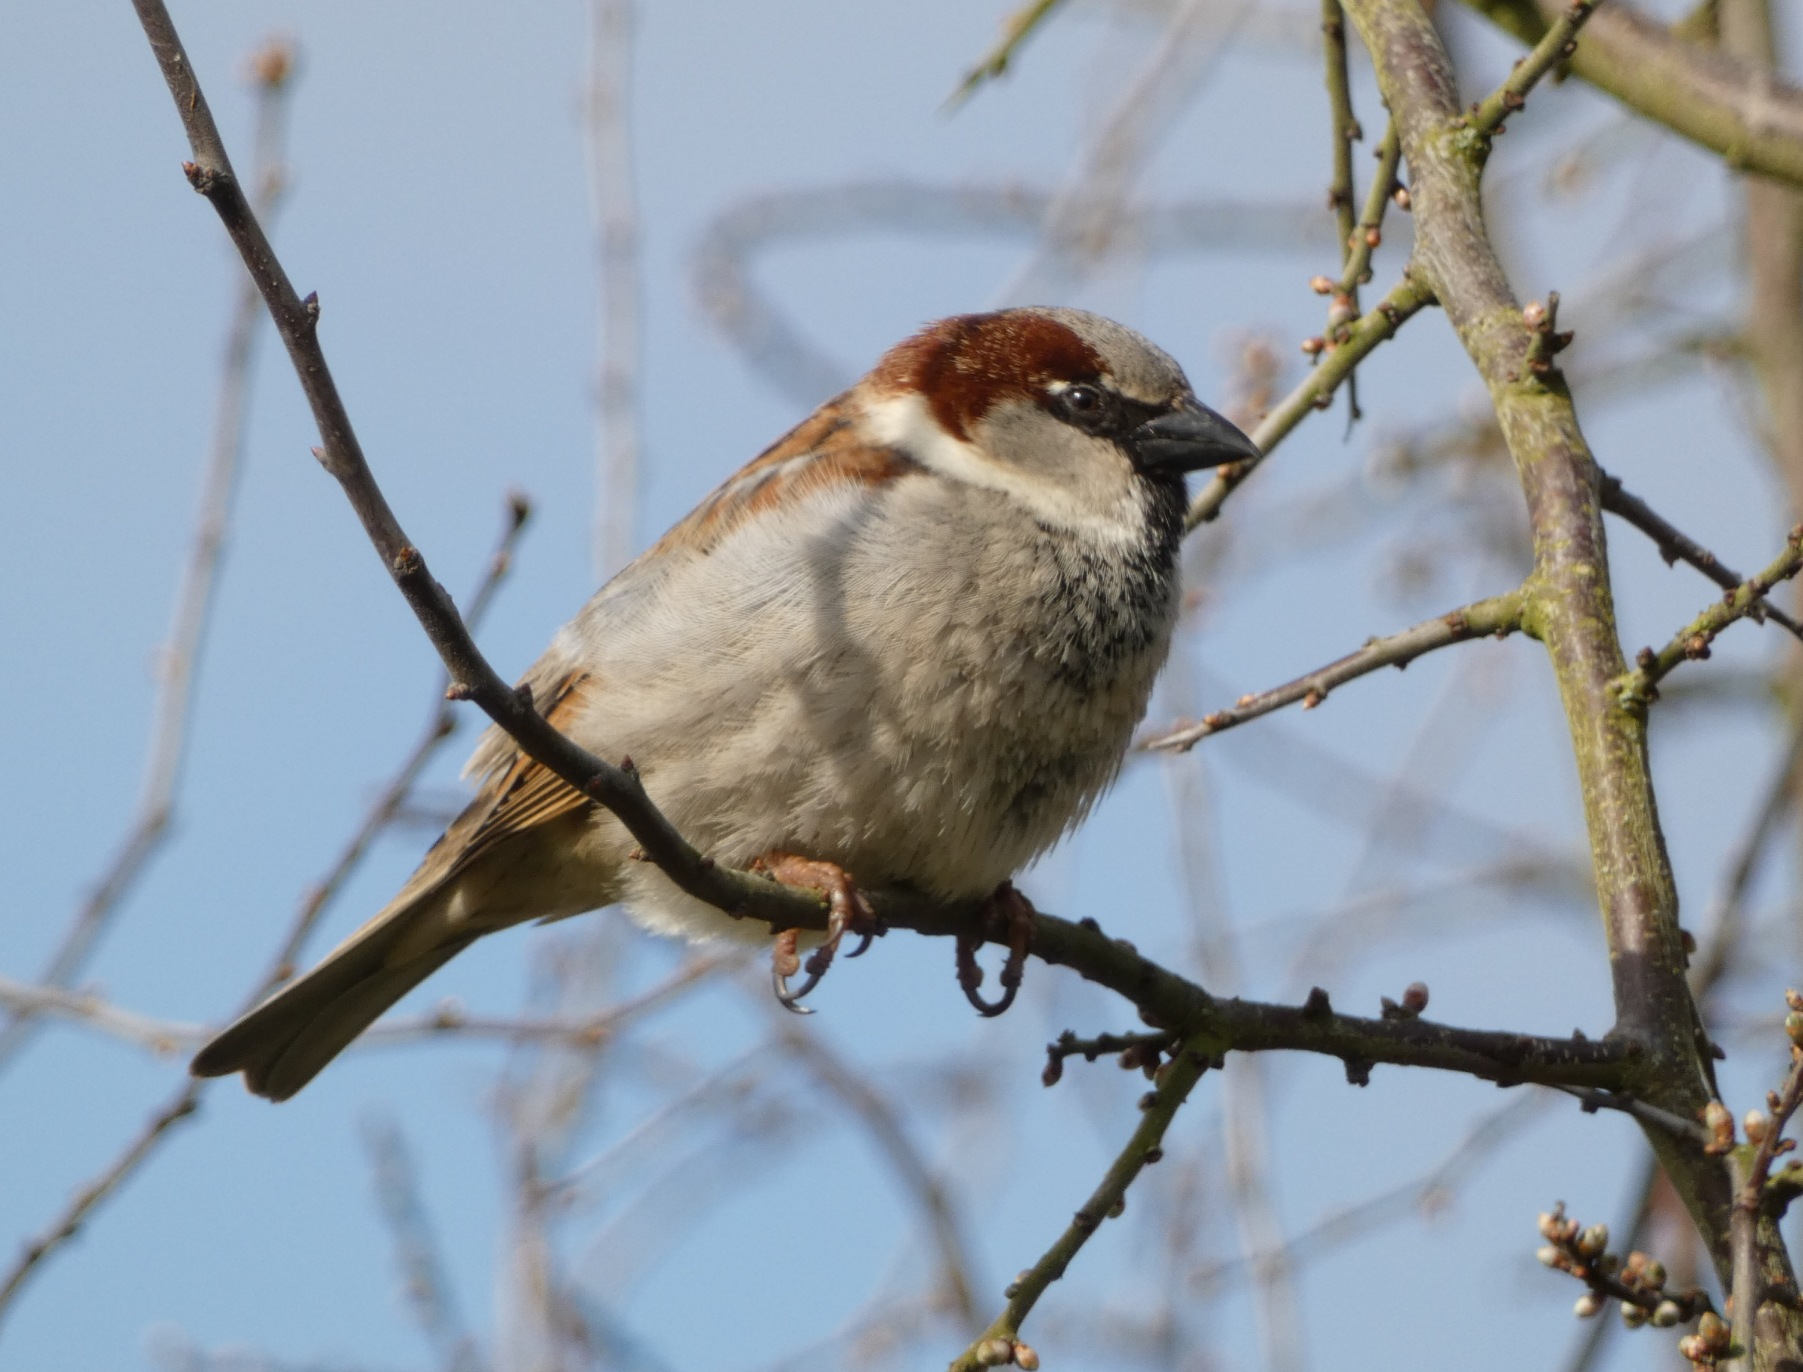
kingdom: Animalia
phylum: Chordata
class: Aves
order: Passeriformes
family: Passeridae
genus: Passer
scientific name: Passer domesticus
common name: Gråspurv
